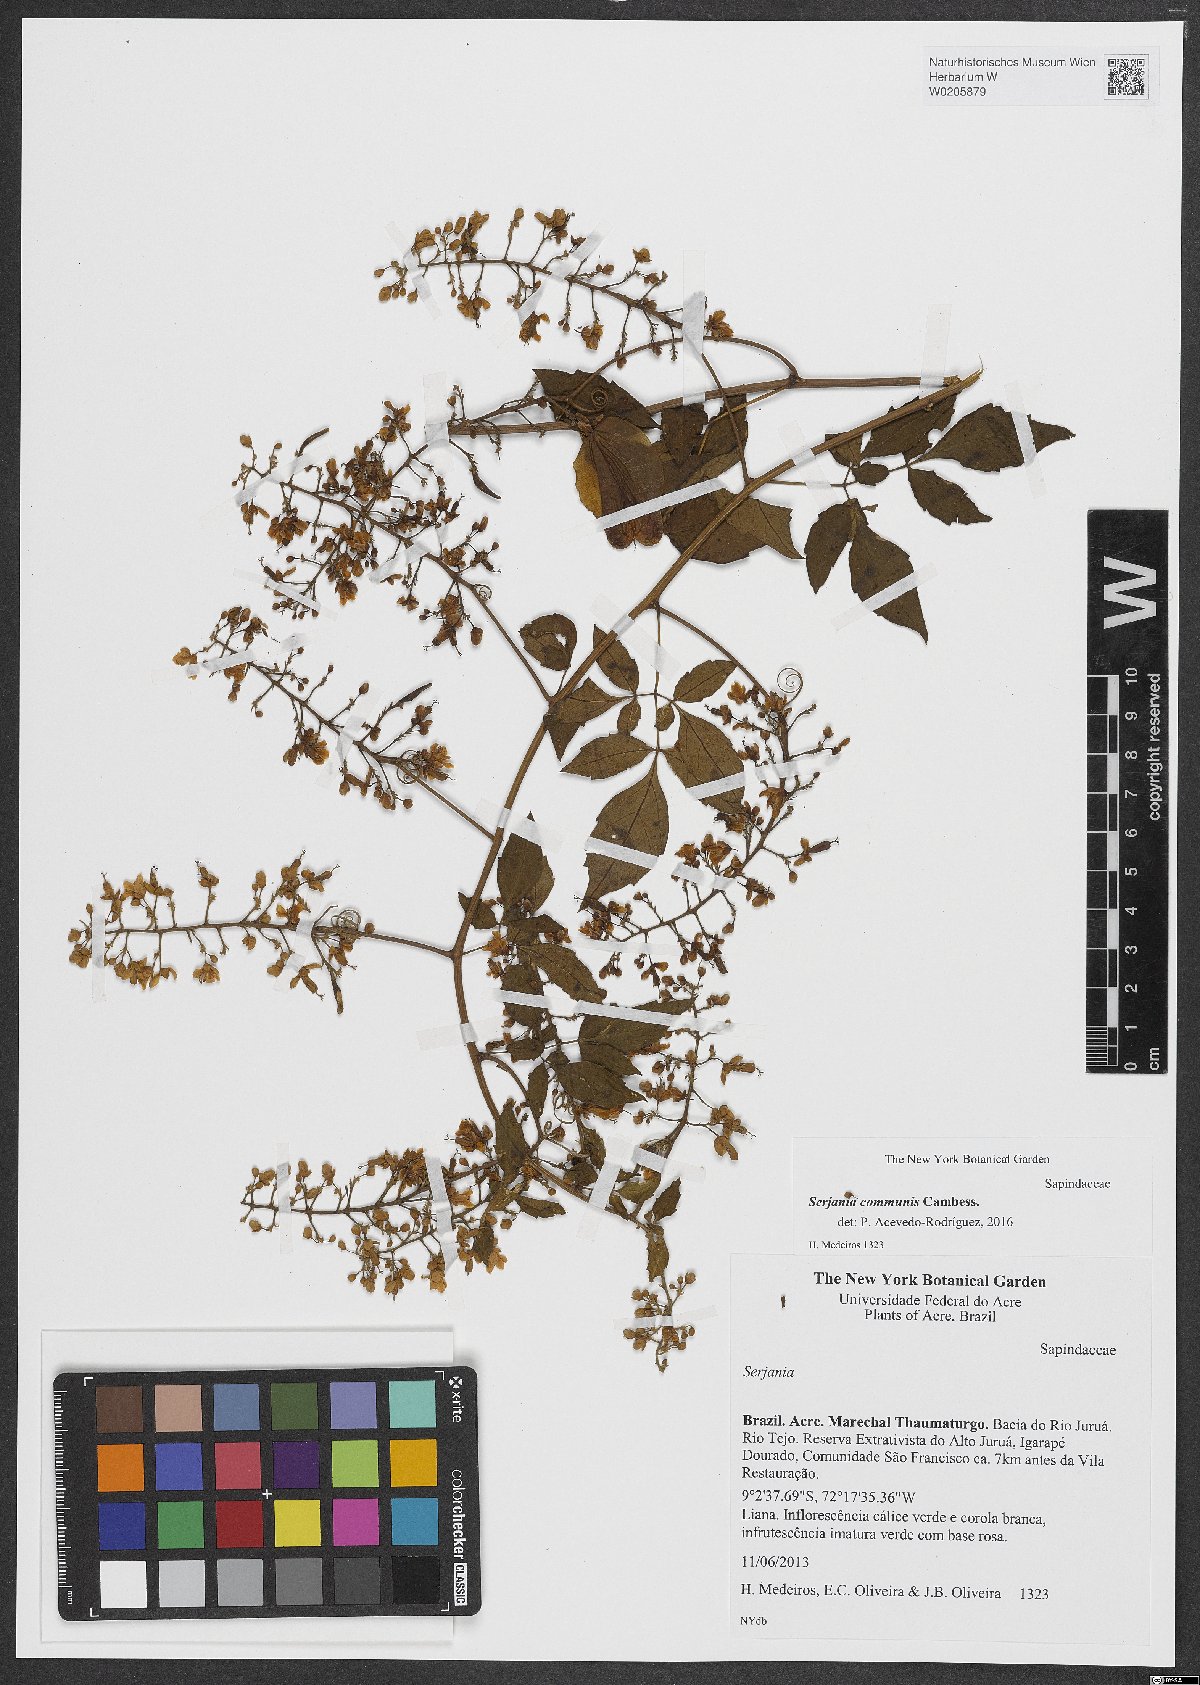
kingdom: Plantae
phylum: Tracheophyta
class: Magnoliopsida
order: Sapindales
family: Sapindaceae
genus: Serjania
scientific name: Serjania communis
